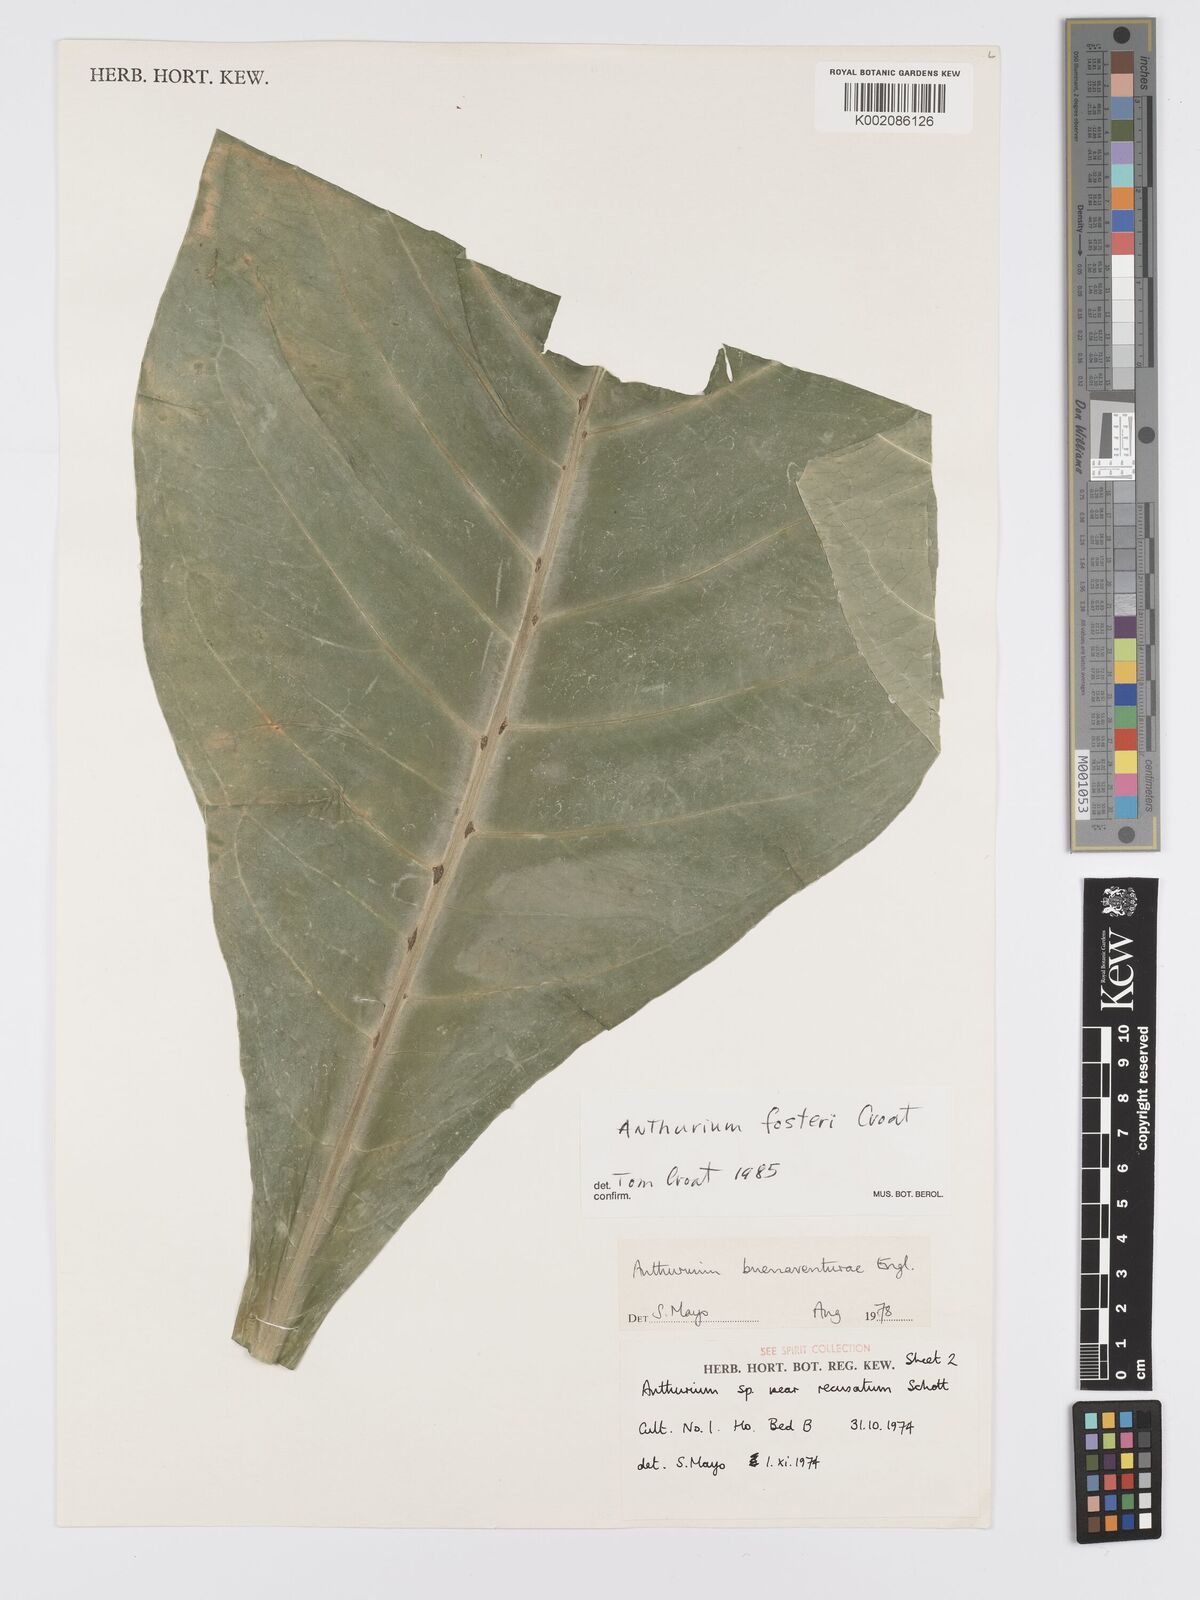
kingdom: Plantae
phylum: Tracheophyta
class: Liliopsida
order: Alismatales
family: Araceae
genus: Anthurium
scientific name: Anthurium fosteri
